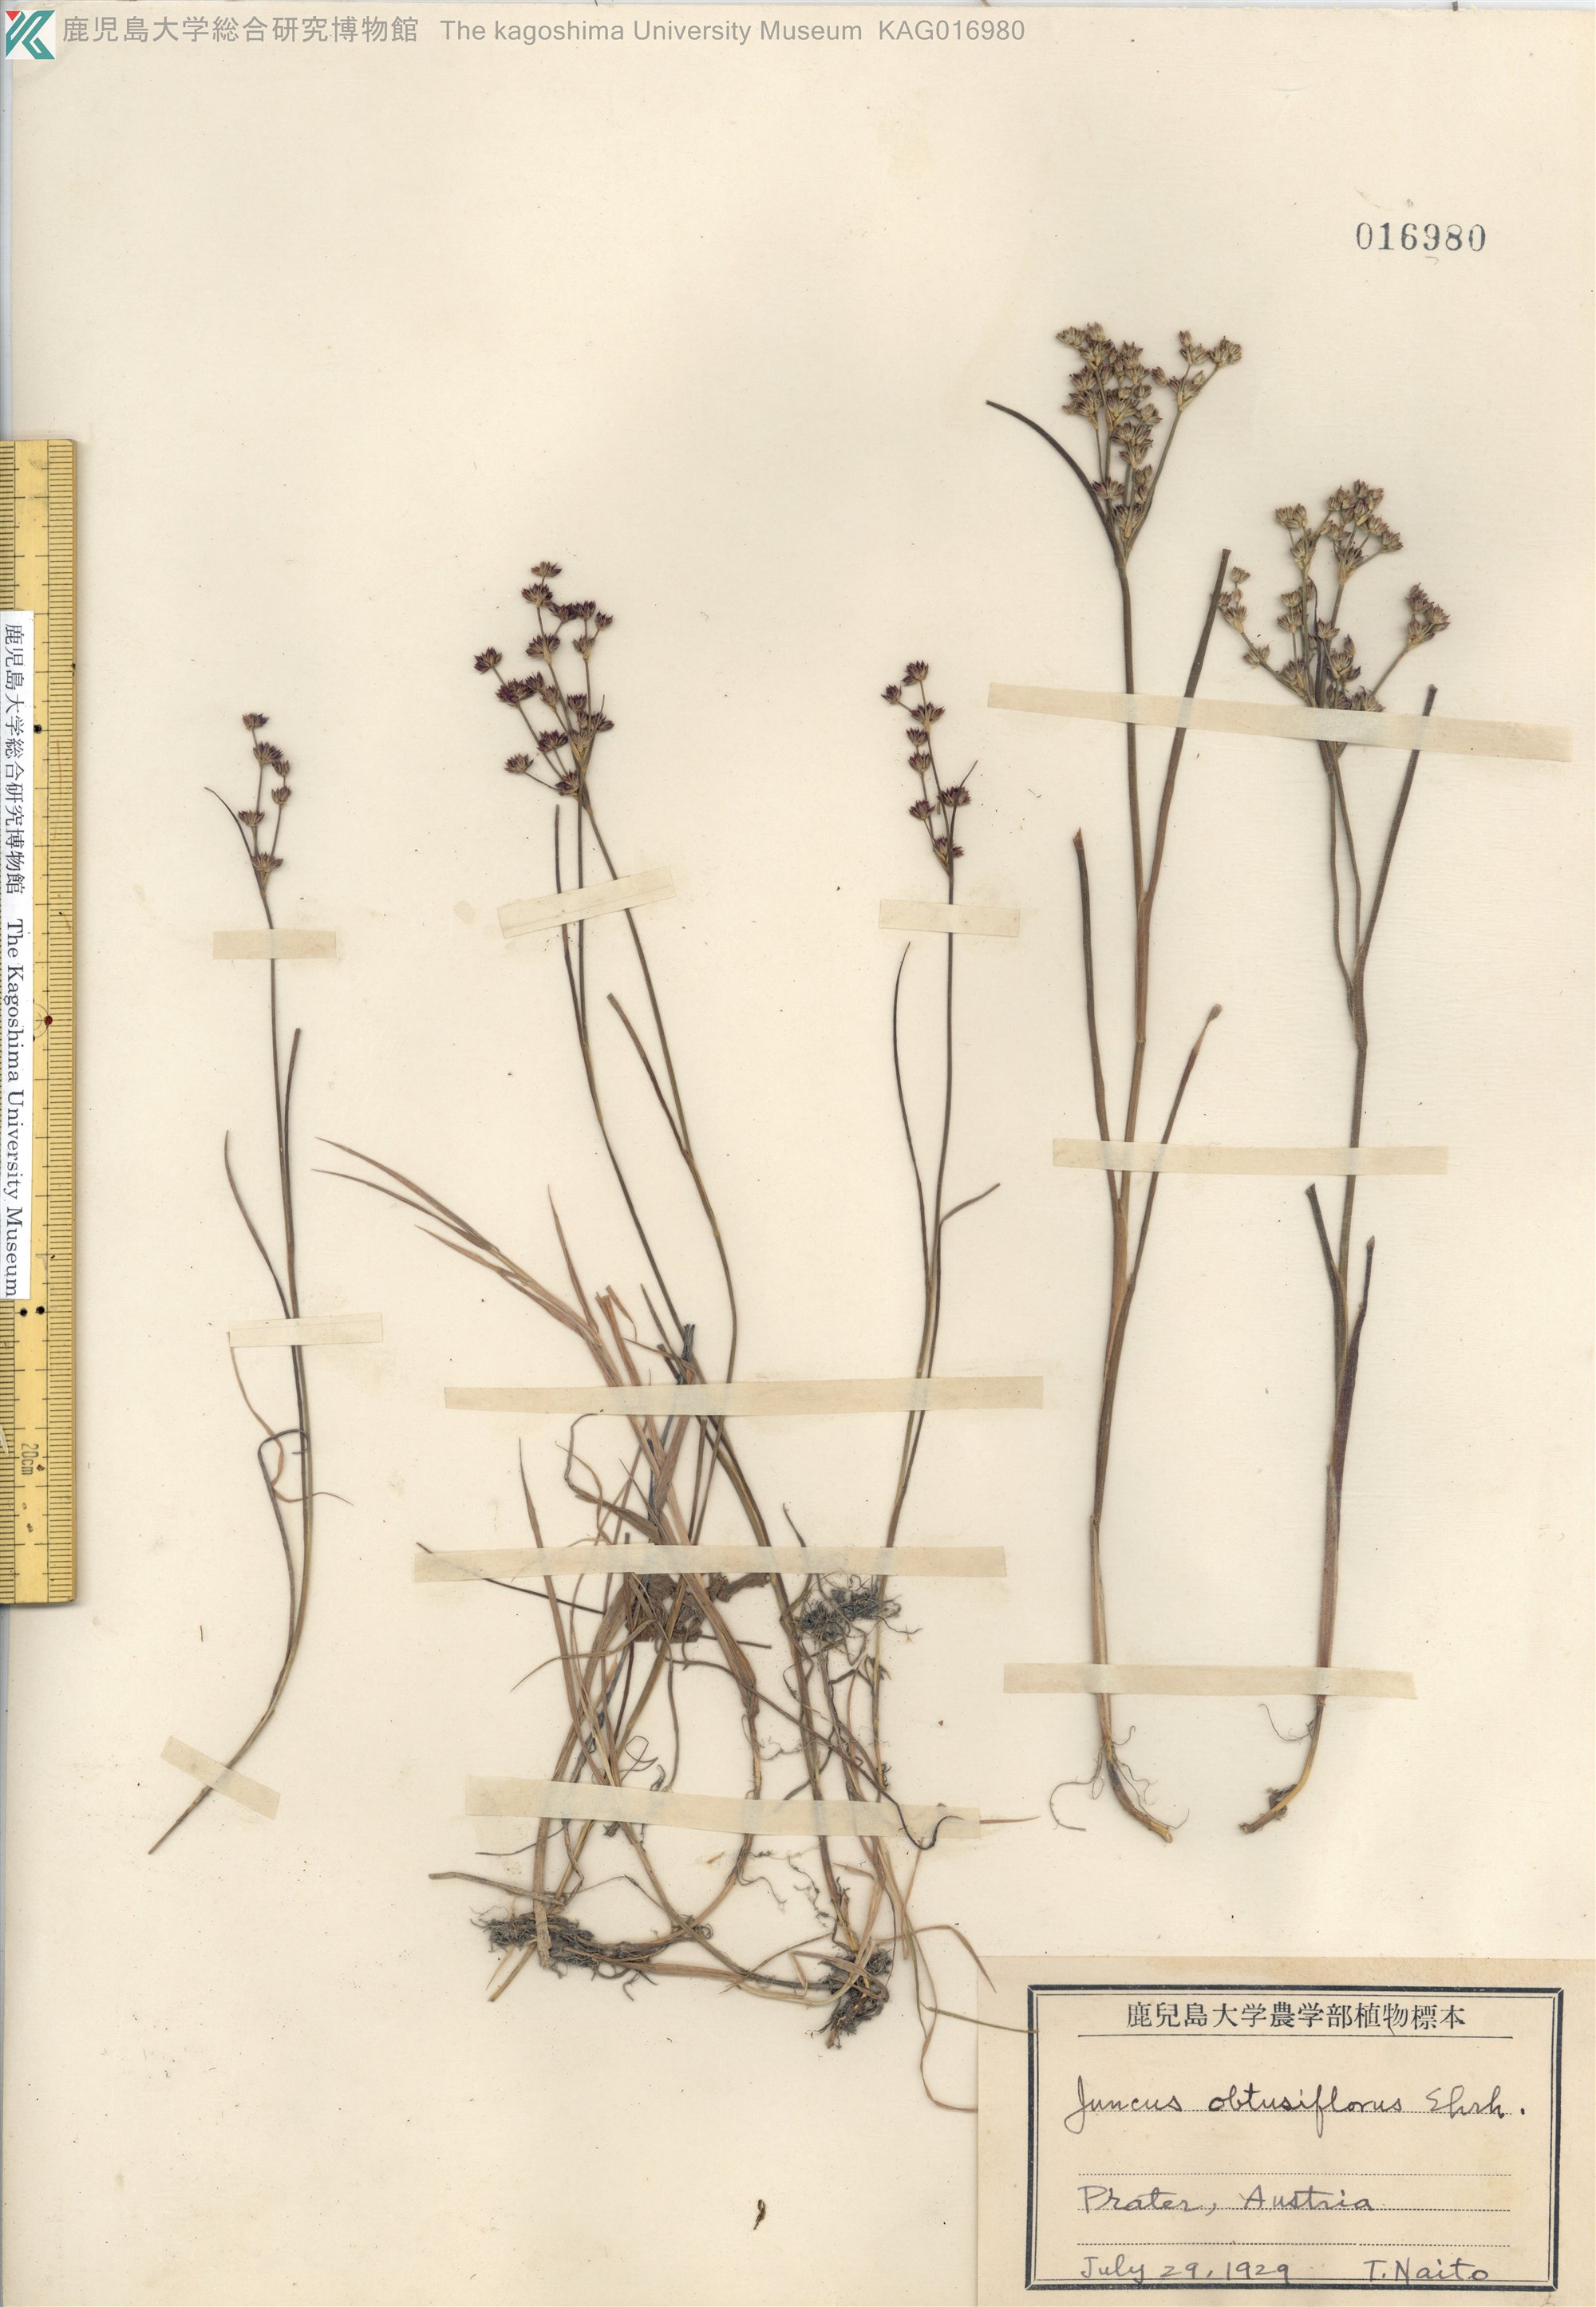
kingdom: Plantae
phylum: Tracheophyta
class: Liliopsida
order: Poales
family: Juncaceae
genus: Juncus
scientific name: Juncus fauriensis
